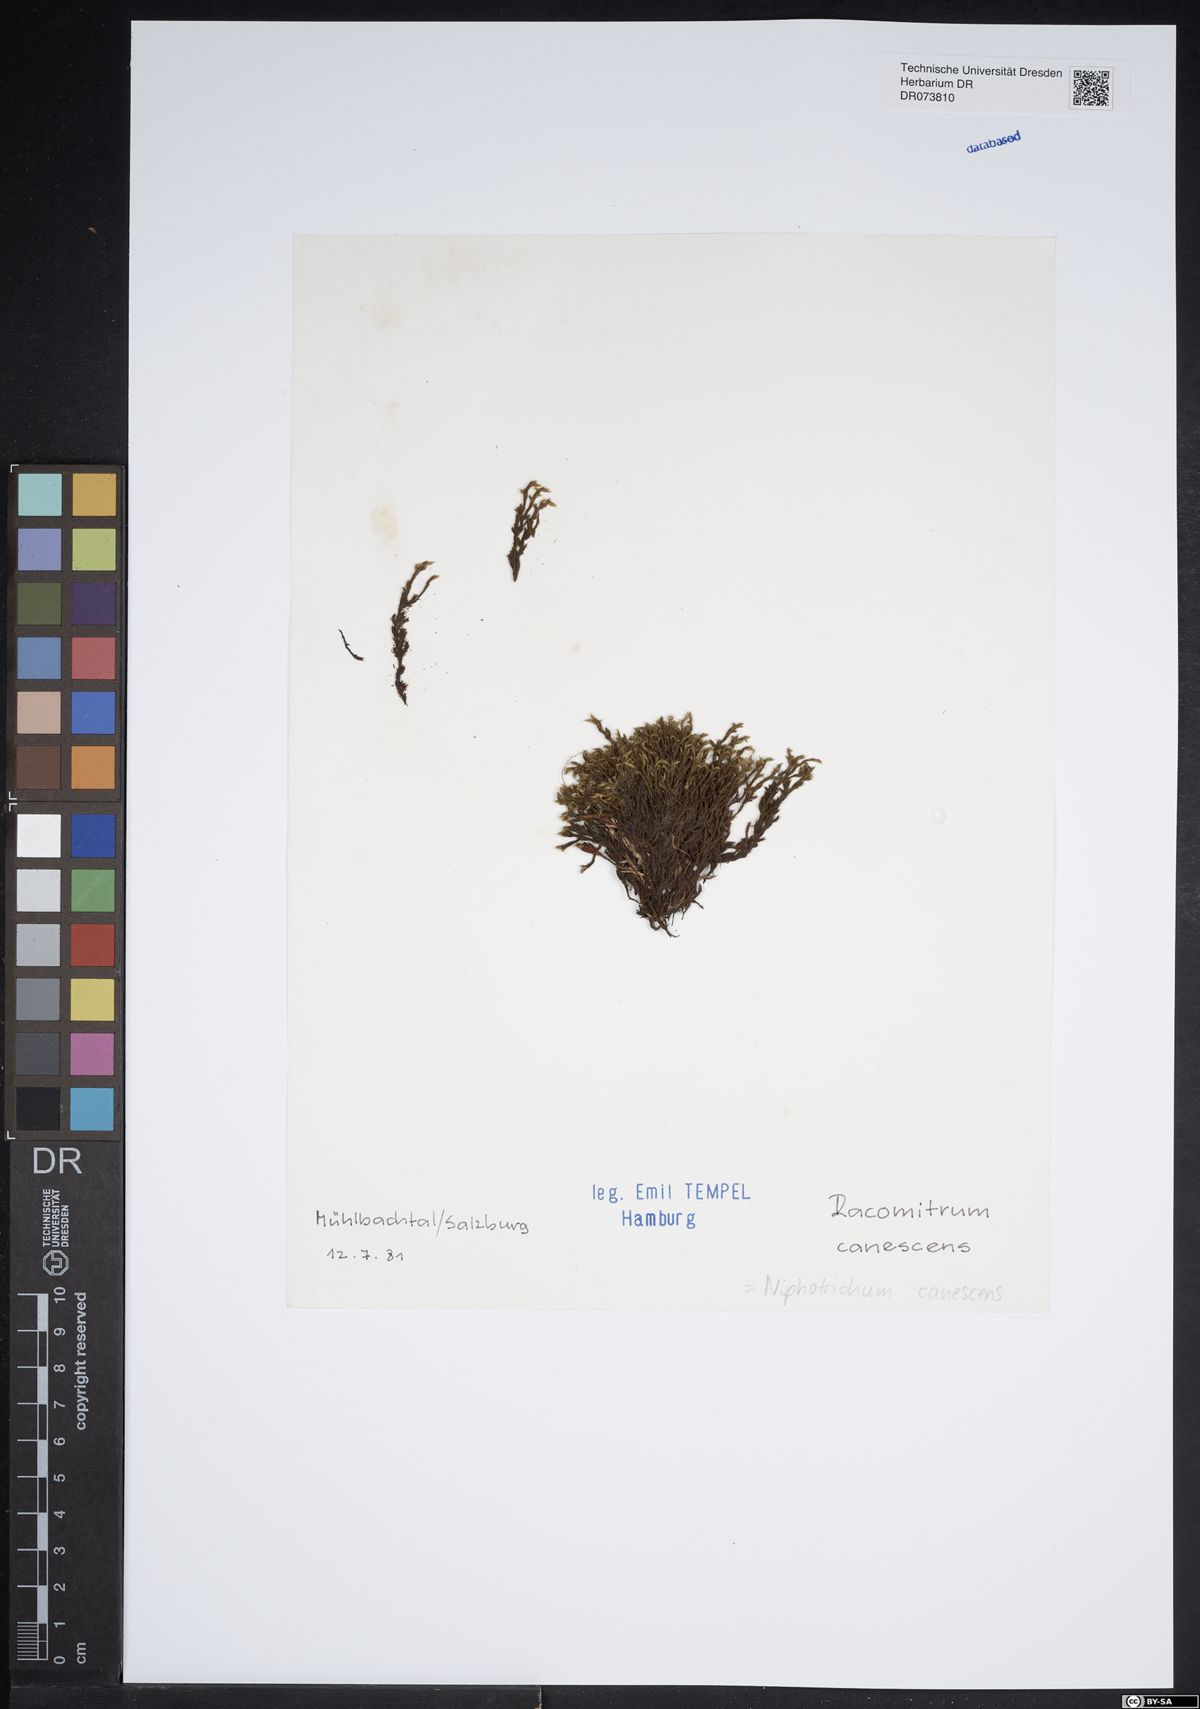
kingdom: Plantae
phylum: Bryophyta
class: Bryopsida
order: Grimmiales
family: Grimmiaceae
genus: Niphotrichum
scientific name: Niphotrichum canescens
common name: Hoary fringe-moss
